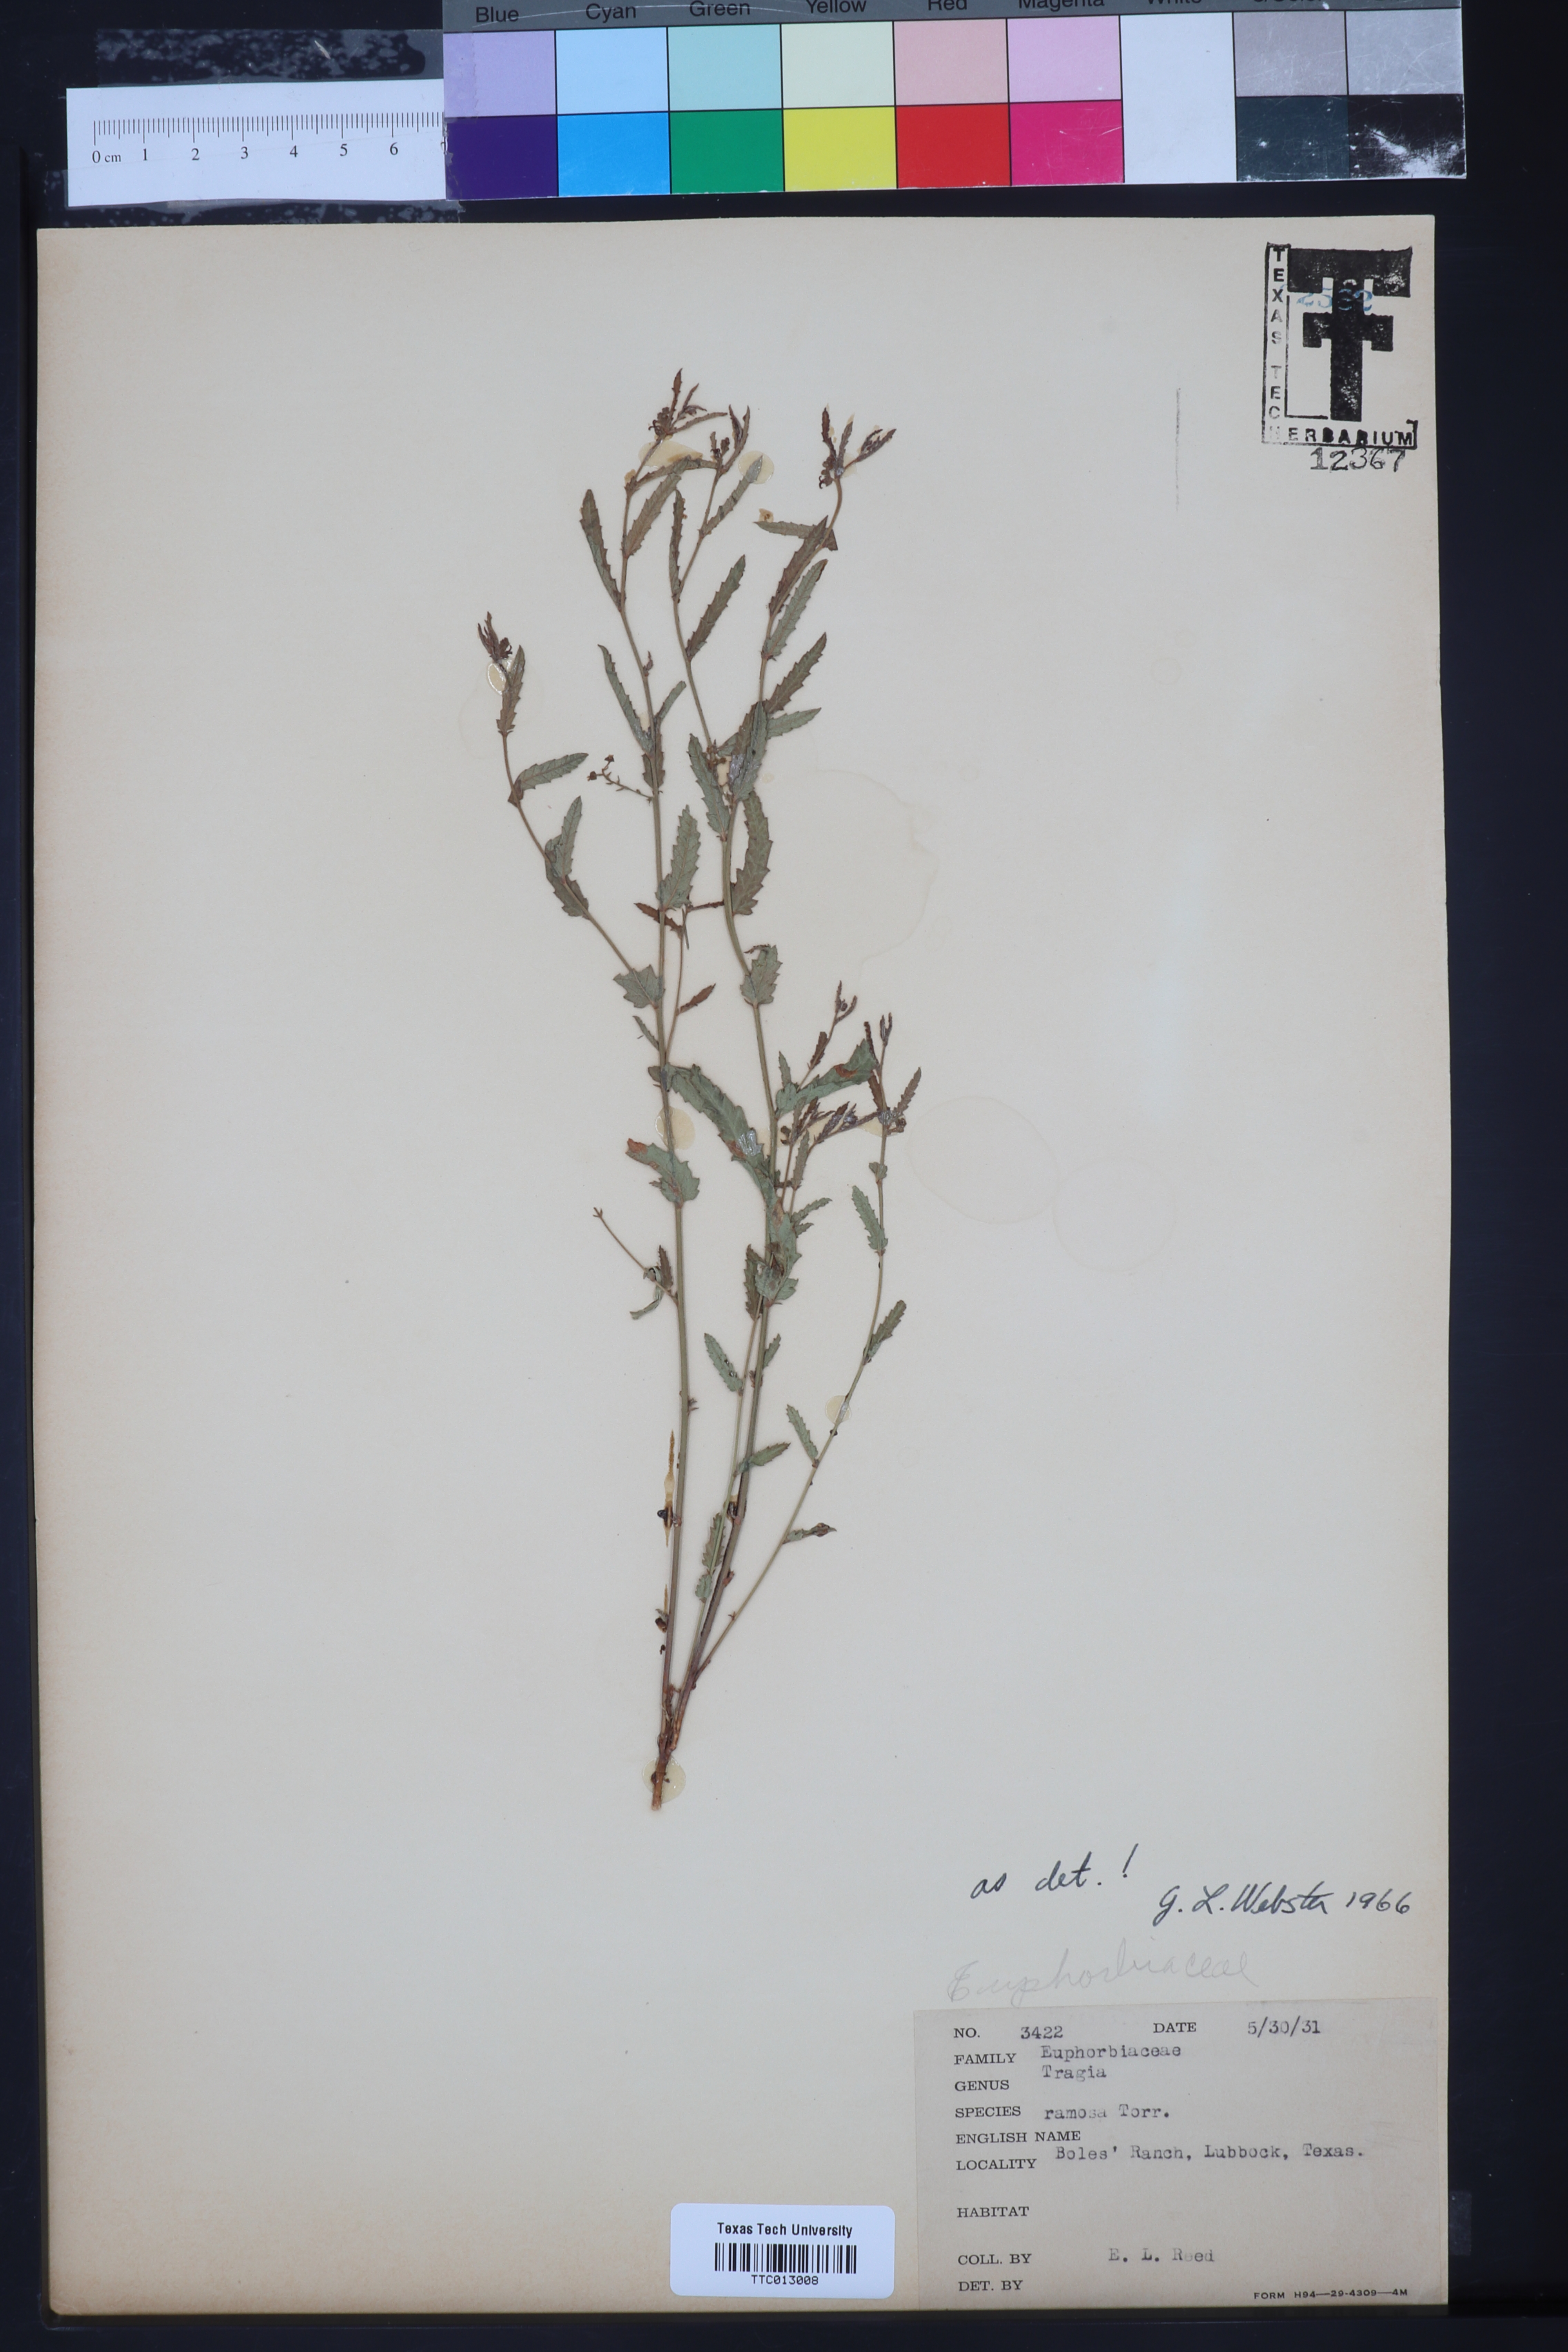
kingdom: Plantae
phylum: Tracheophyta
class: Magnoliopsida
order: Malpighiales
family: Euphorbiaceae
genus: Tragia
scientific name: Tragia ramosa
